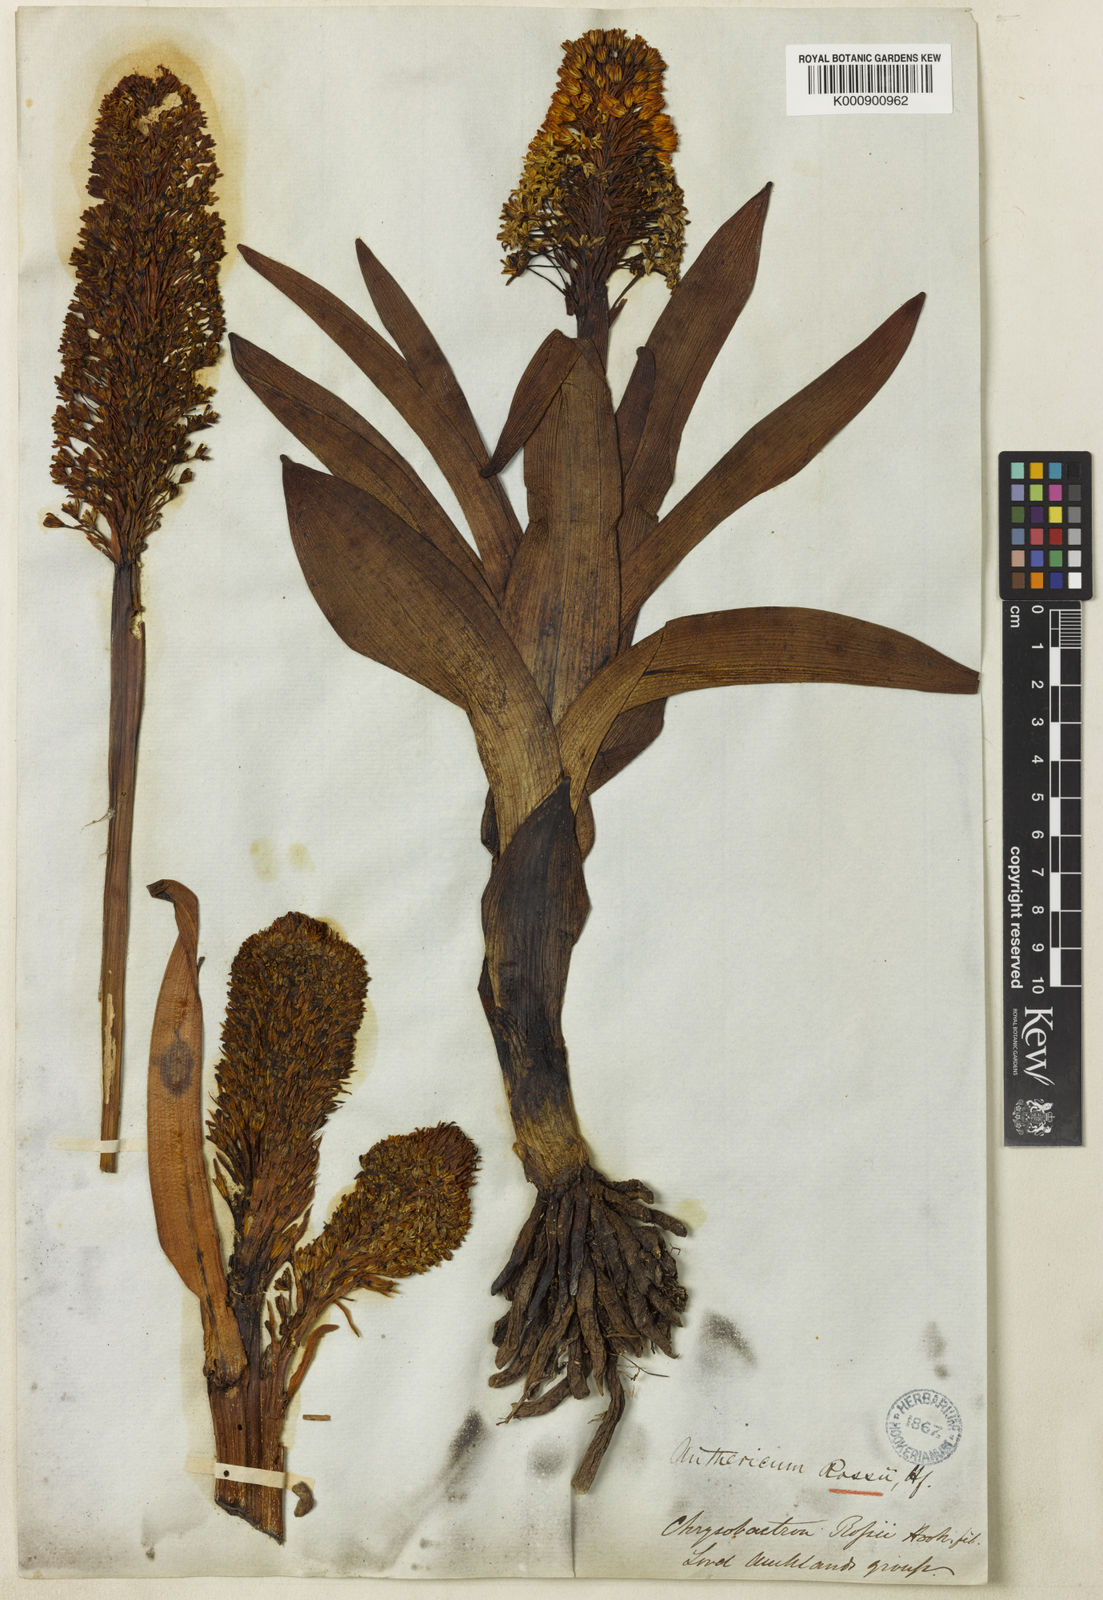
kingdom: Plantae
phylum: Tracheophyta
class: Liliopsida
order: Asparagales
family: Asphodelaceae
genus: Bulbinella
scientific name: Bulbinella
